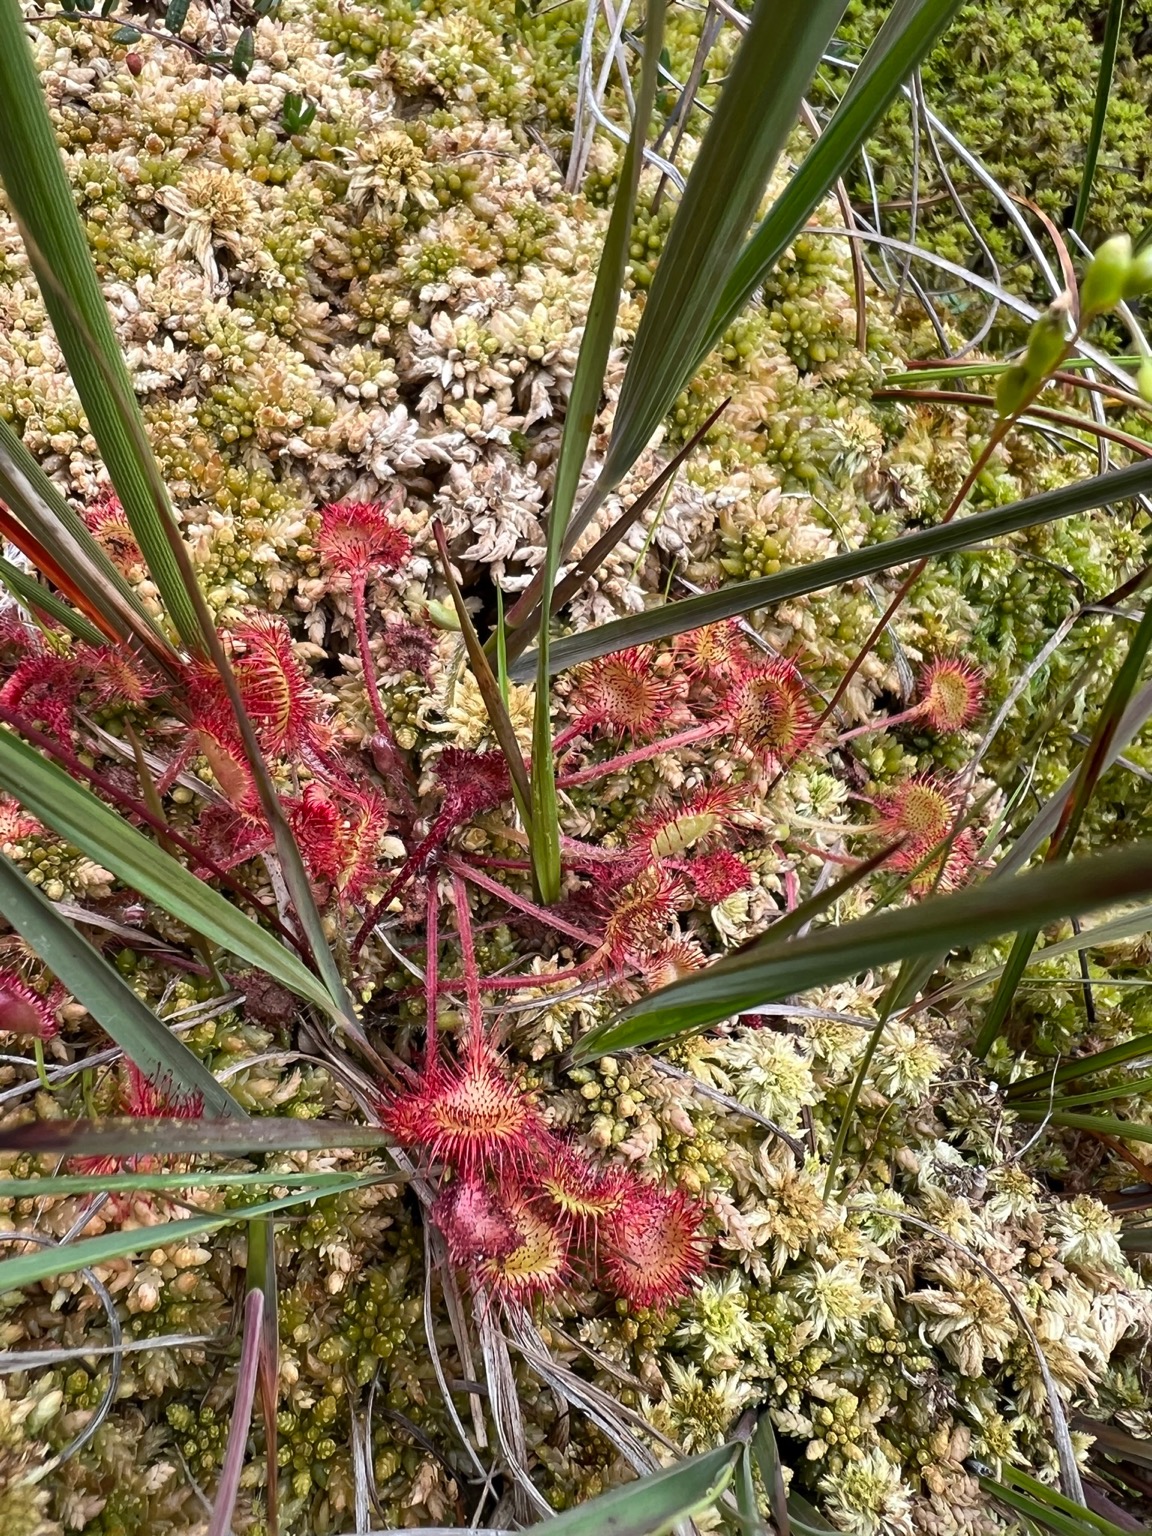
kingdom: Plantae
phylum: Tracheophyta
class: Magnoliopsida
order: Caryophyllales
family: Droseraceae
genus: Drosera
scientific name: Drosera rotundifolia
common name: Rundbladet soldug
